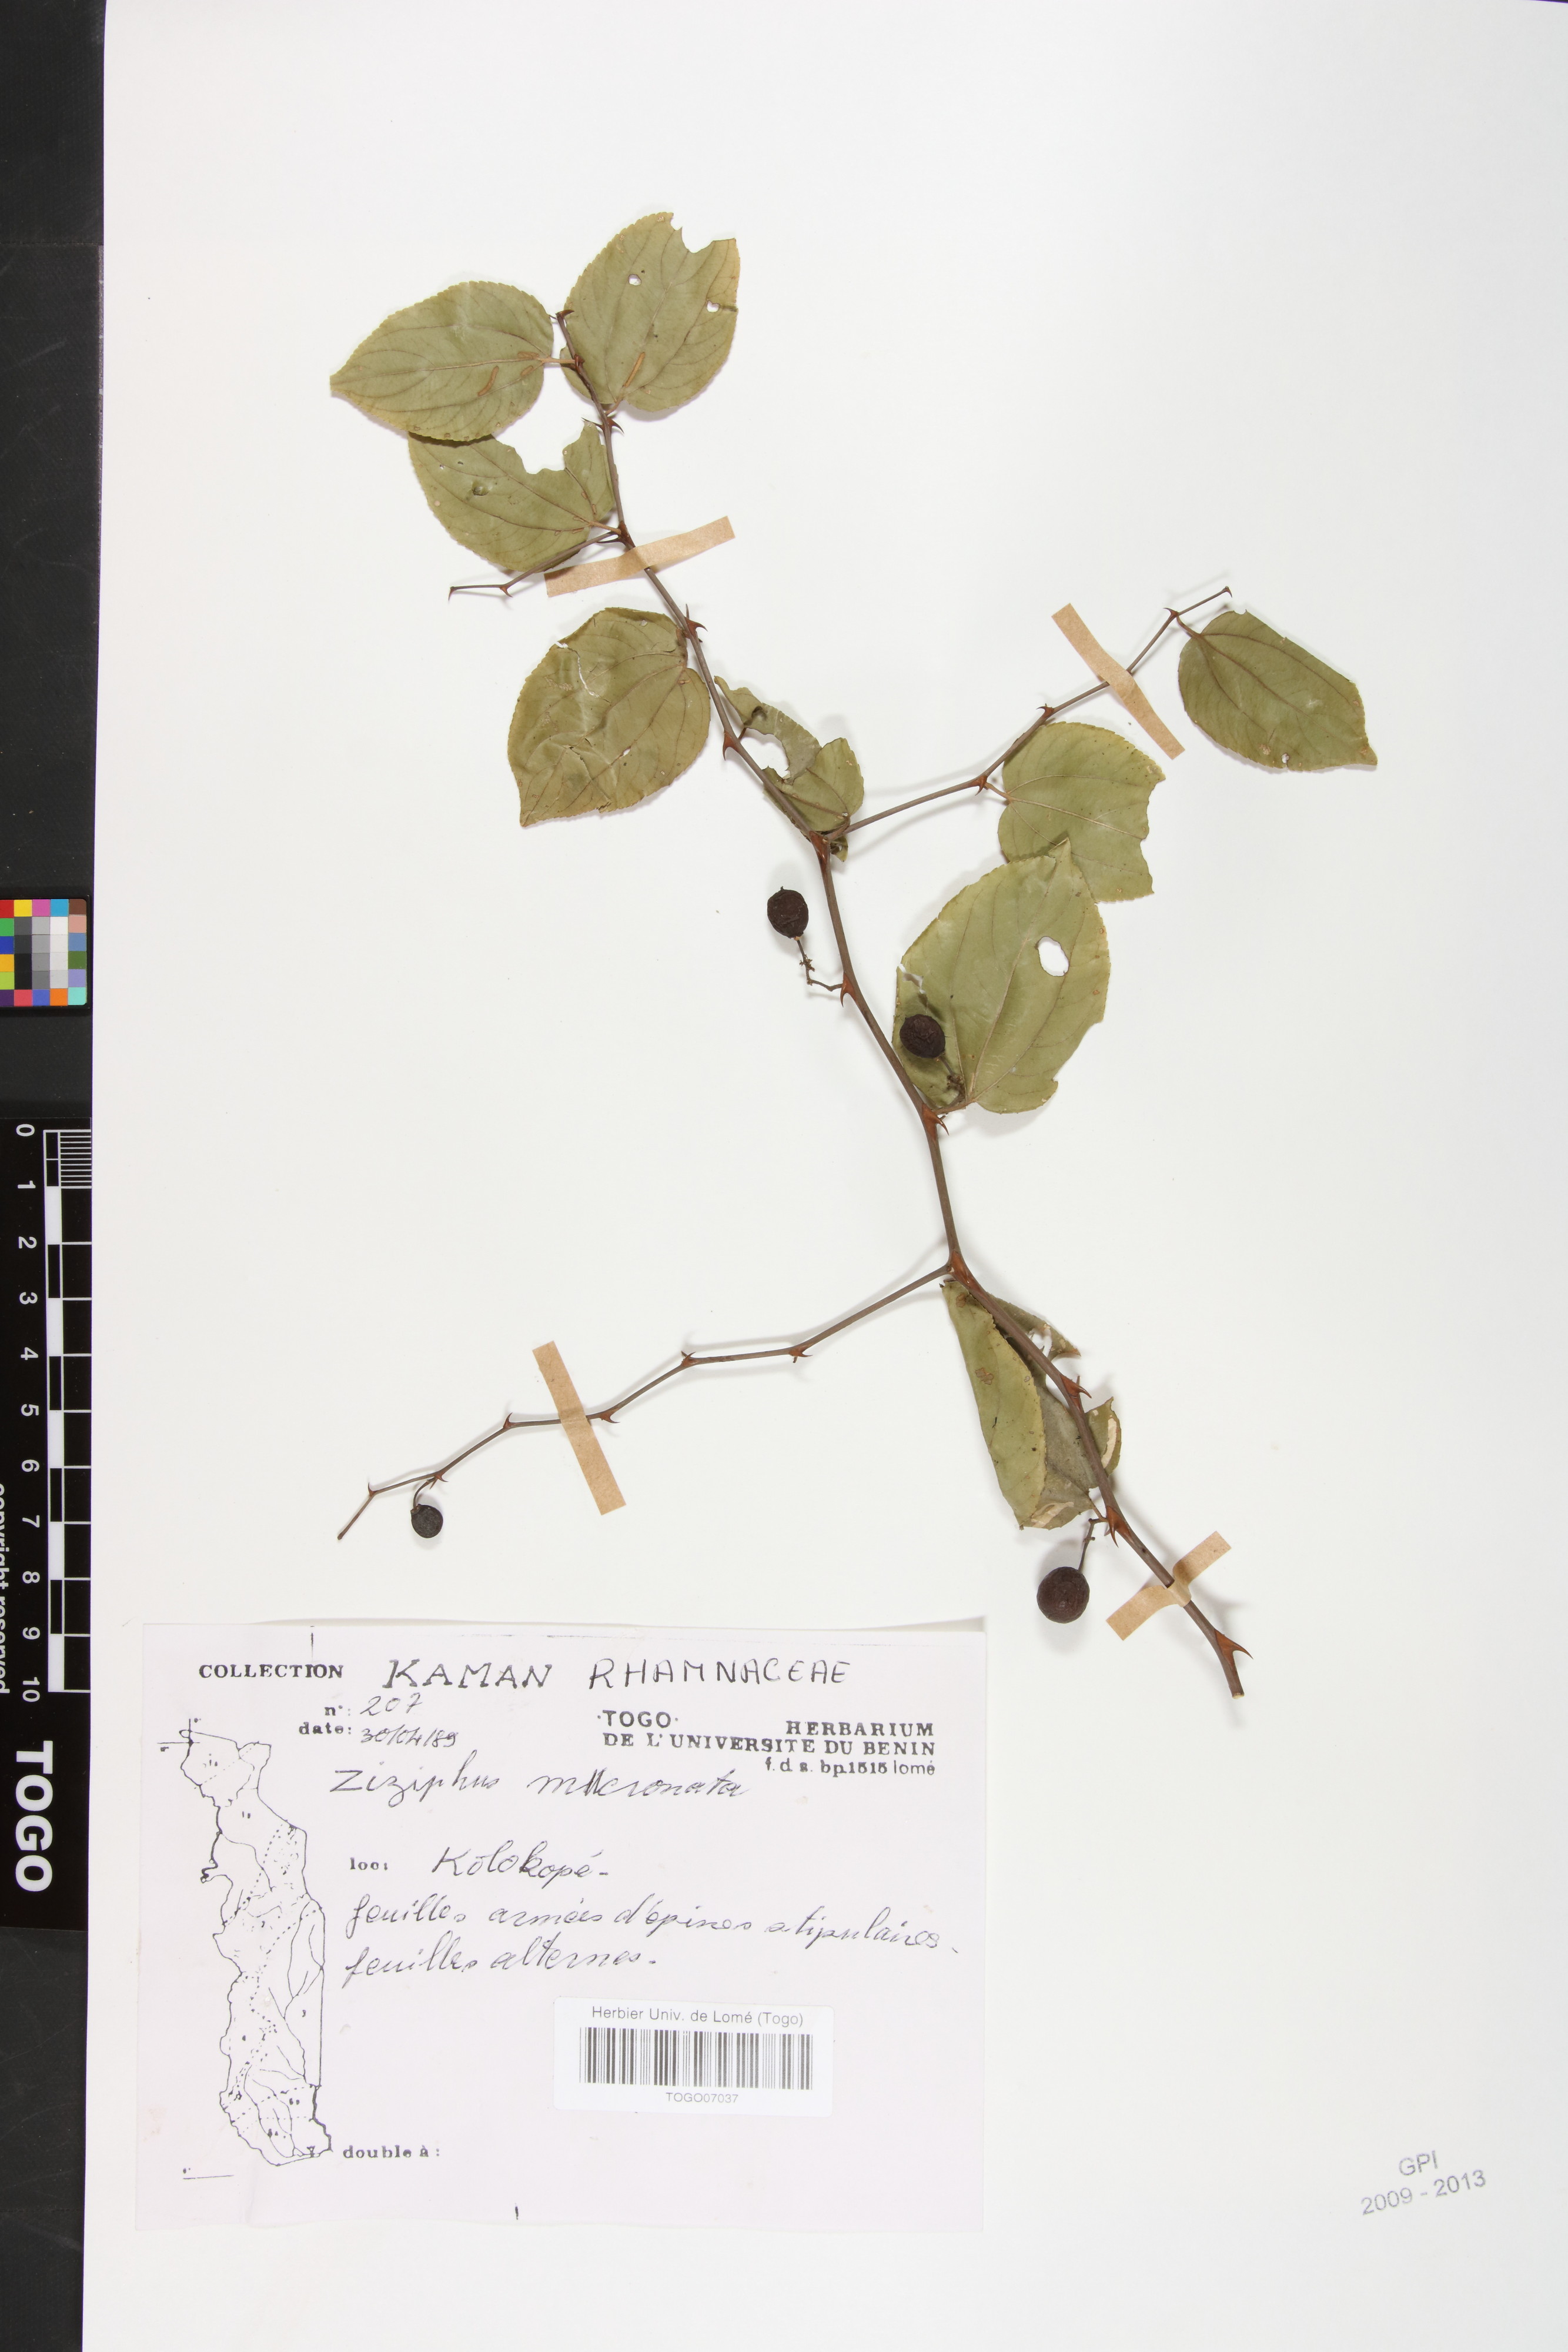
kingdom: Plantae
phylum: Tracheophyta
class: Magnoliopsida
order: Rosales
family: Rhamnaceae
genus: Ziziphus
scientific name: Ziziphus mucronata
